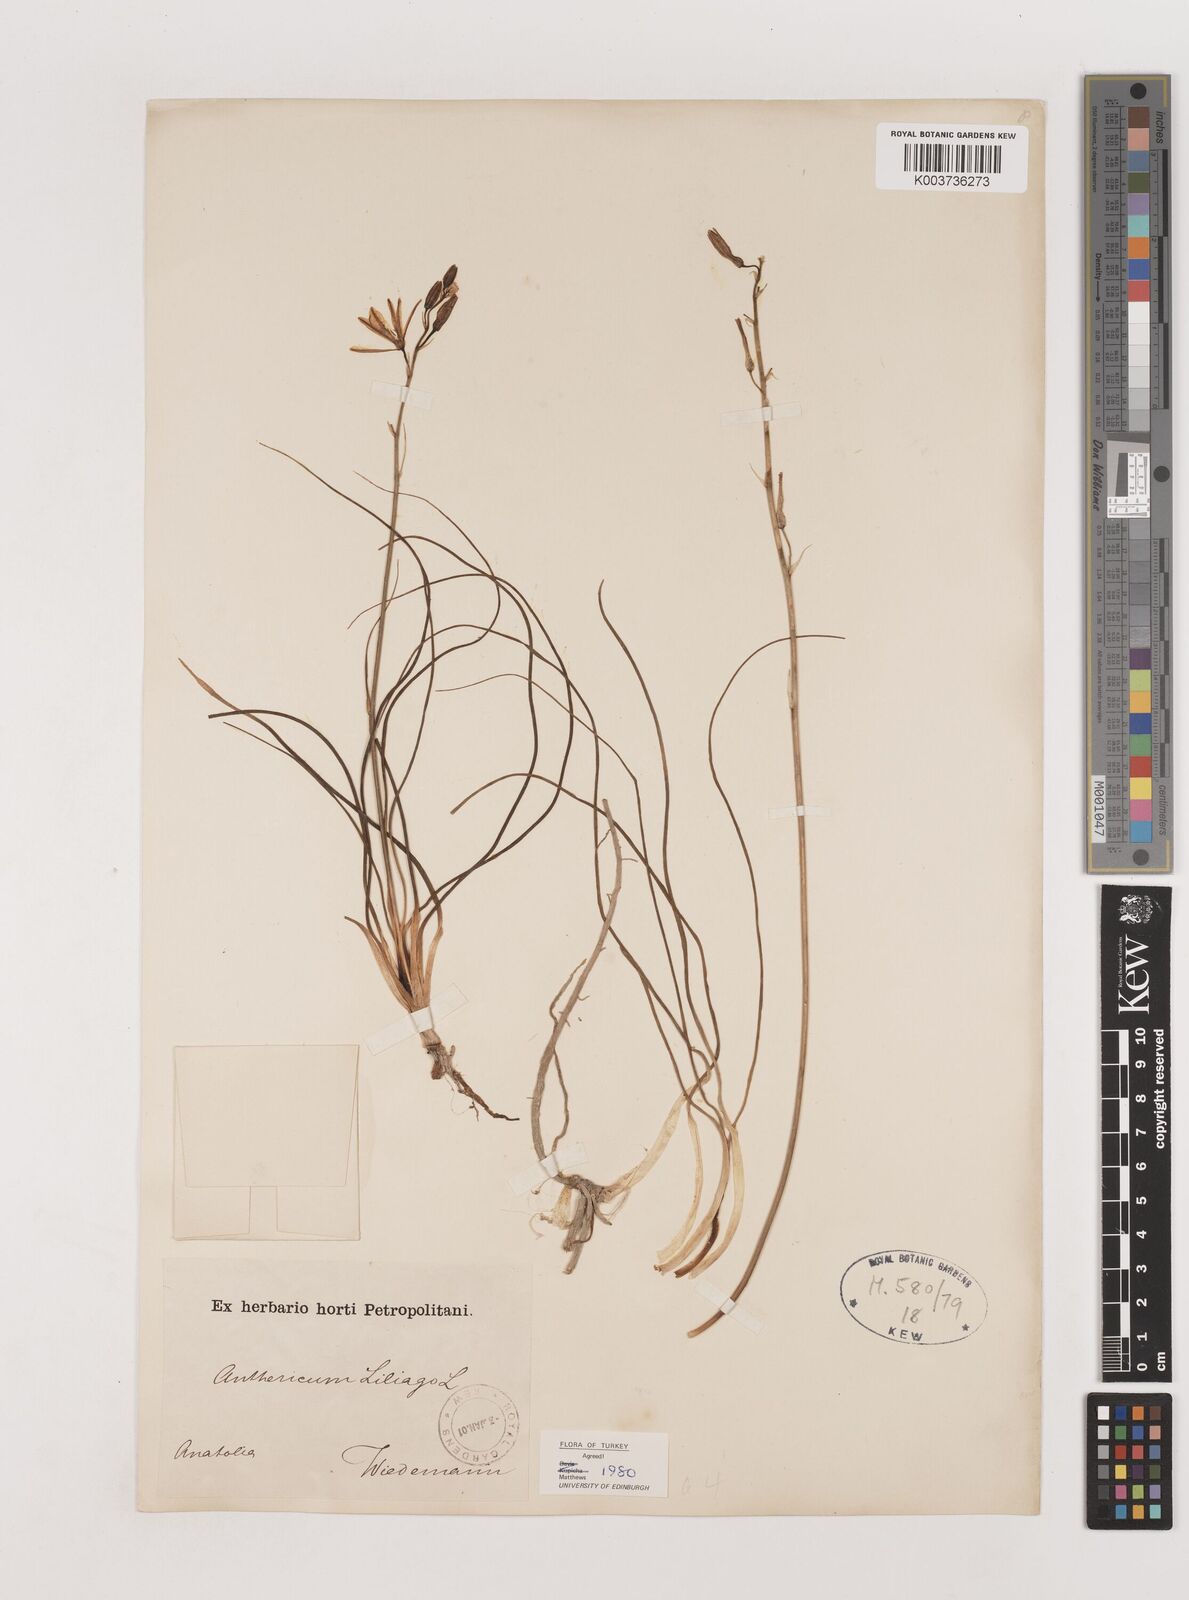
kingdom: Plantae
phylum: Tracheophyta
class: Liliopsida
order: Asparagales
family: Asparagaceae
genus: Anthericum
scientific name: Anthericum liliago
